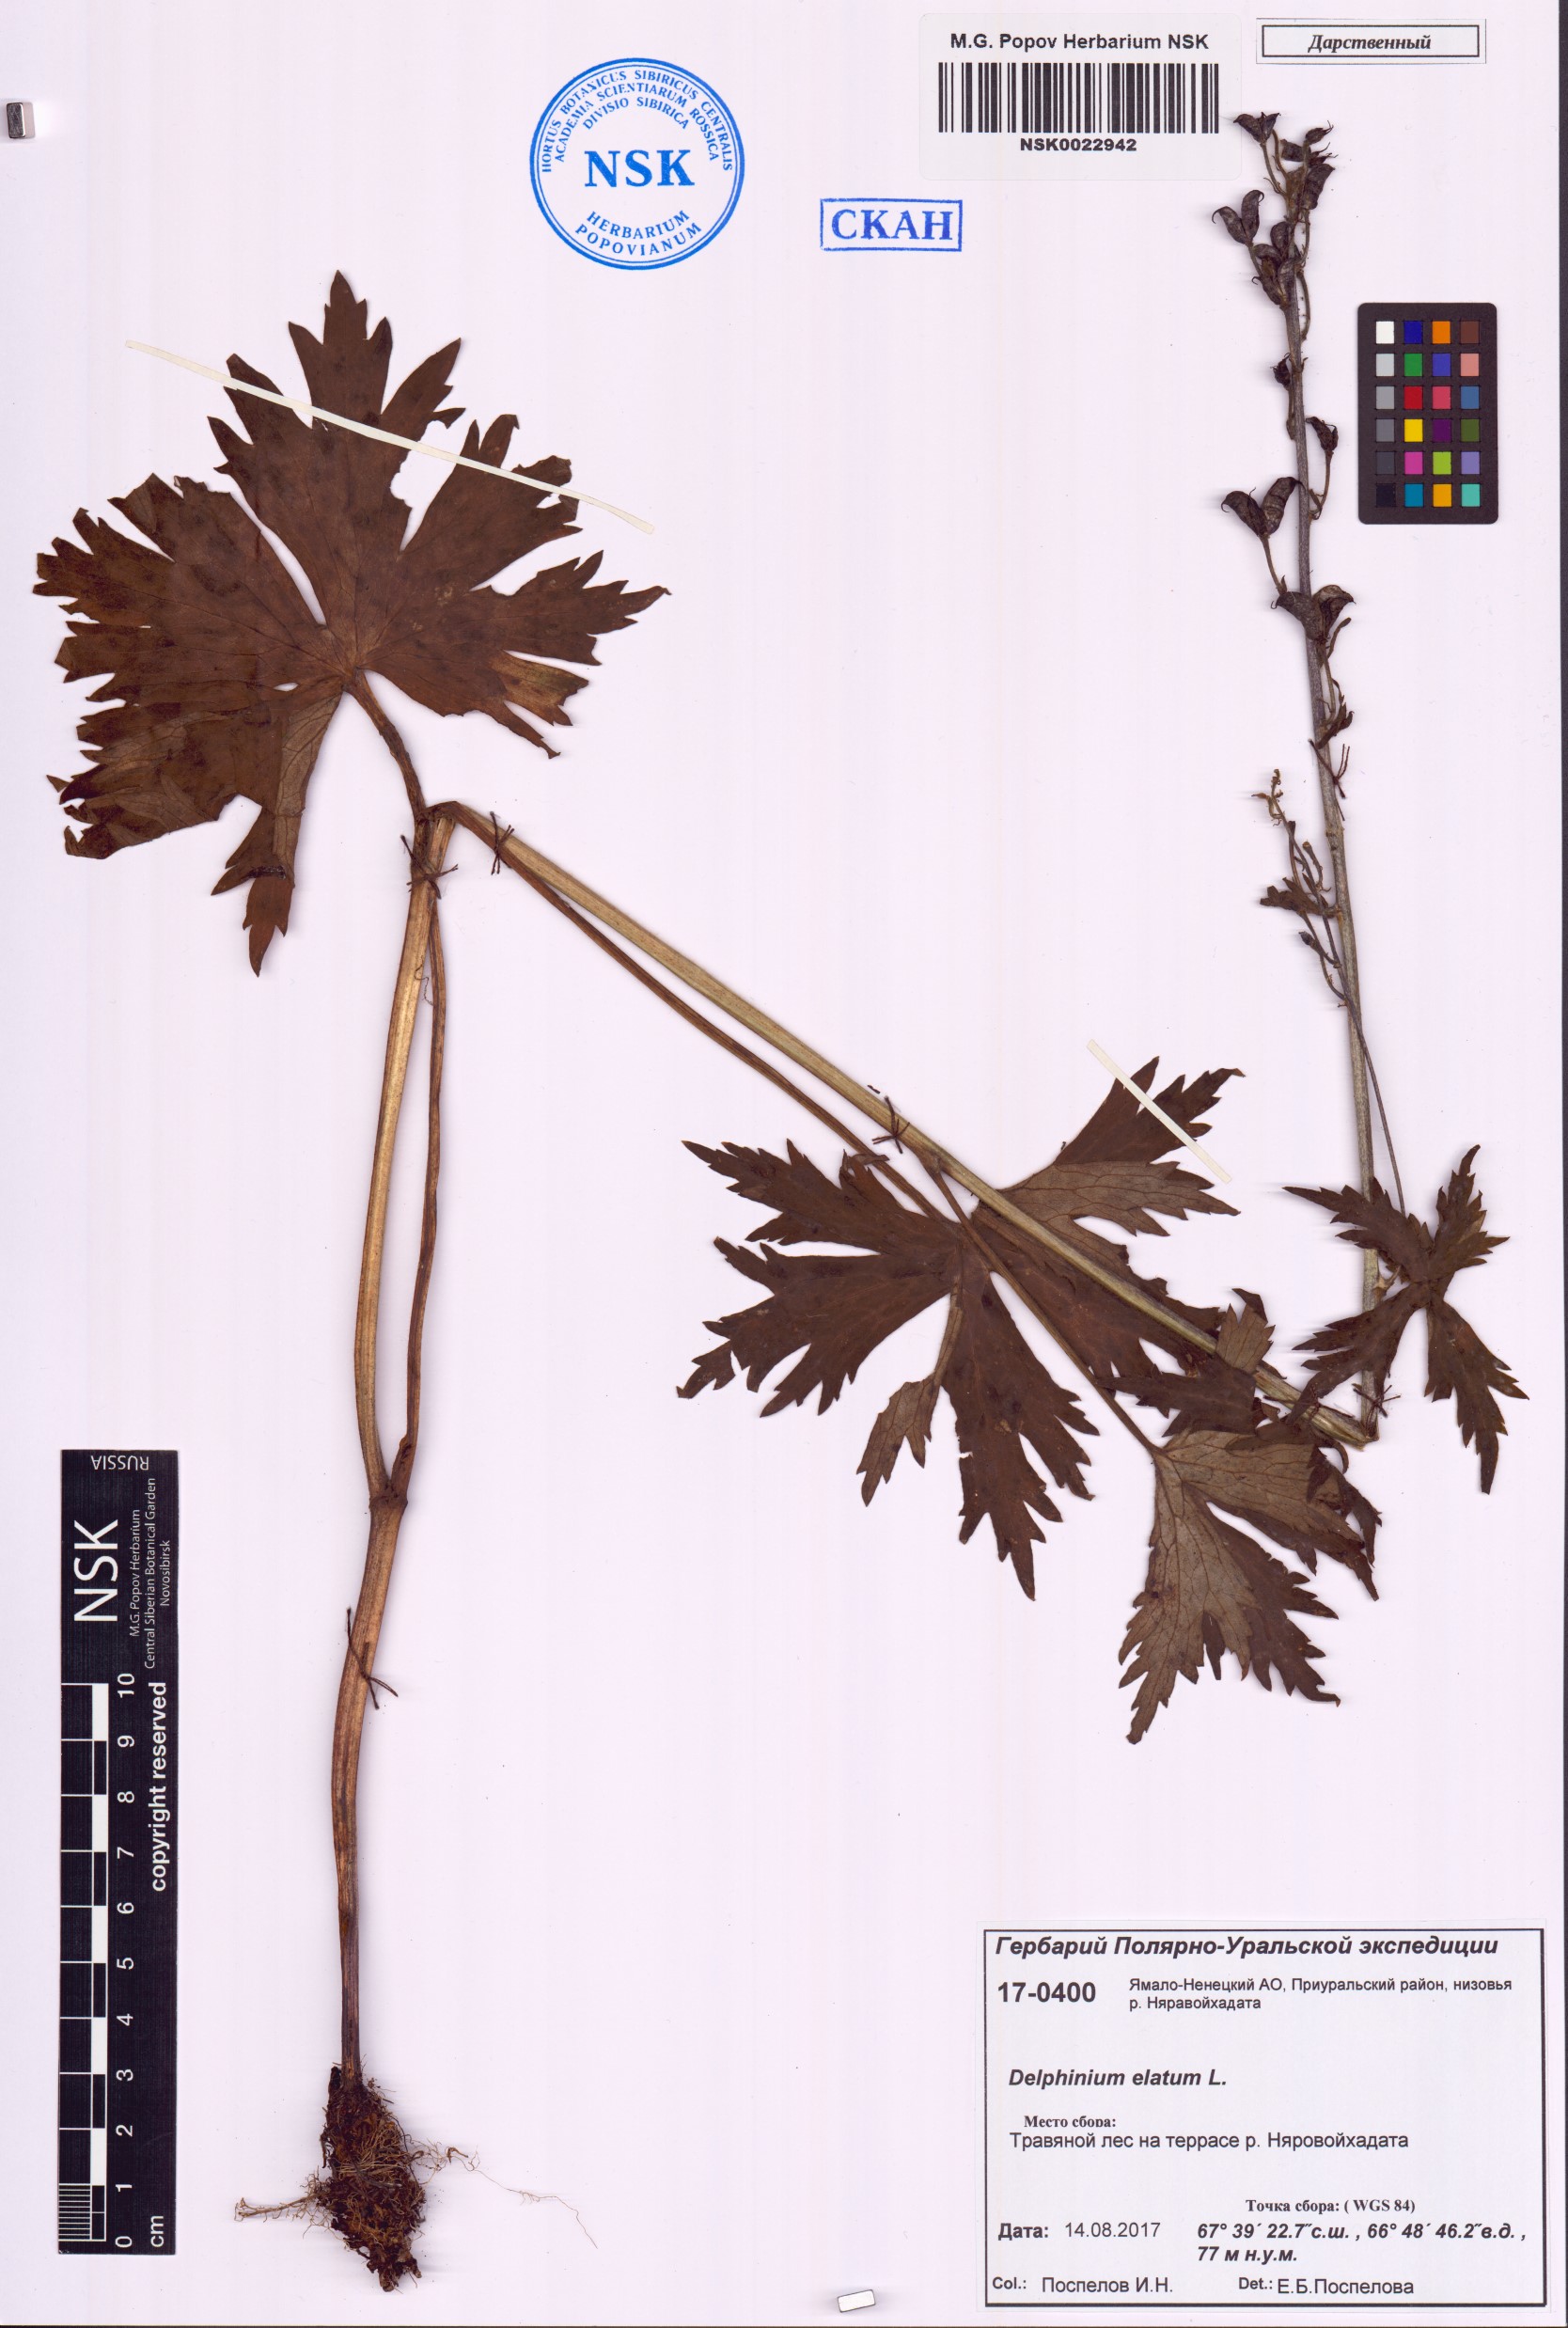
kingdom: Plantae
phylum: Tracheophyta
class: Magnoliopsida
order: Ranunculales
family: Ranunculaceae
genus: Delphinium
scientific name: Delphinium elatum
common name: Candle larkspur
